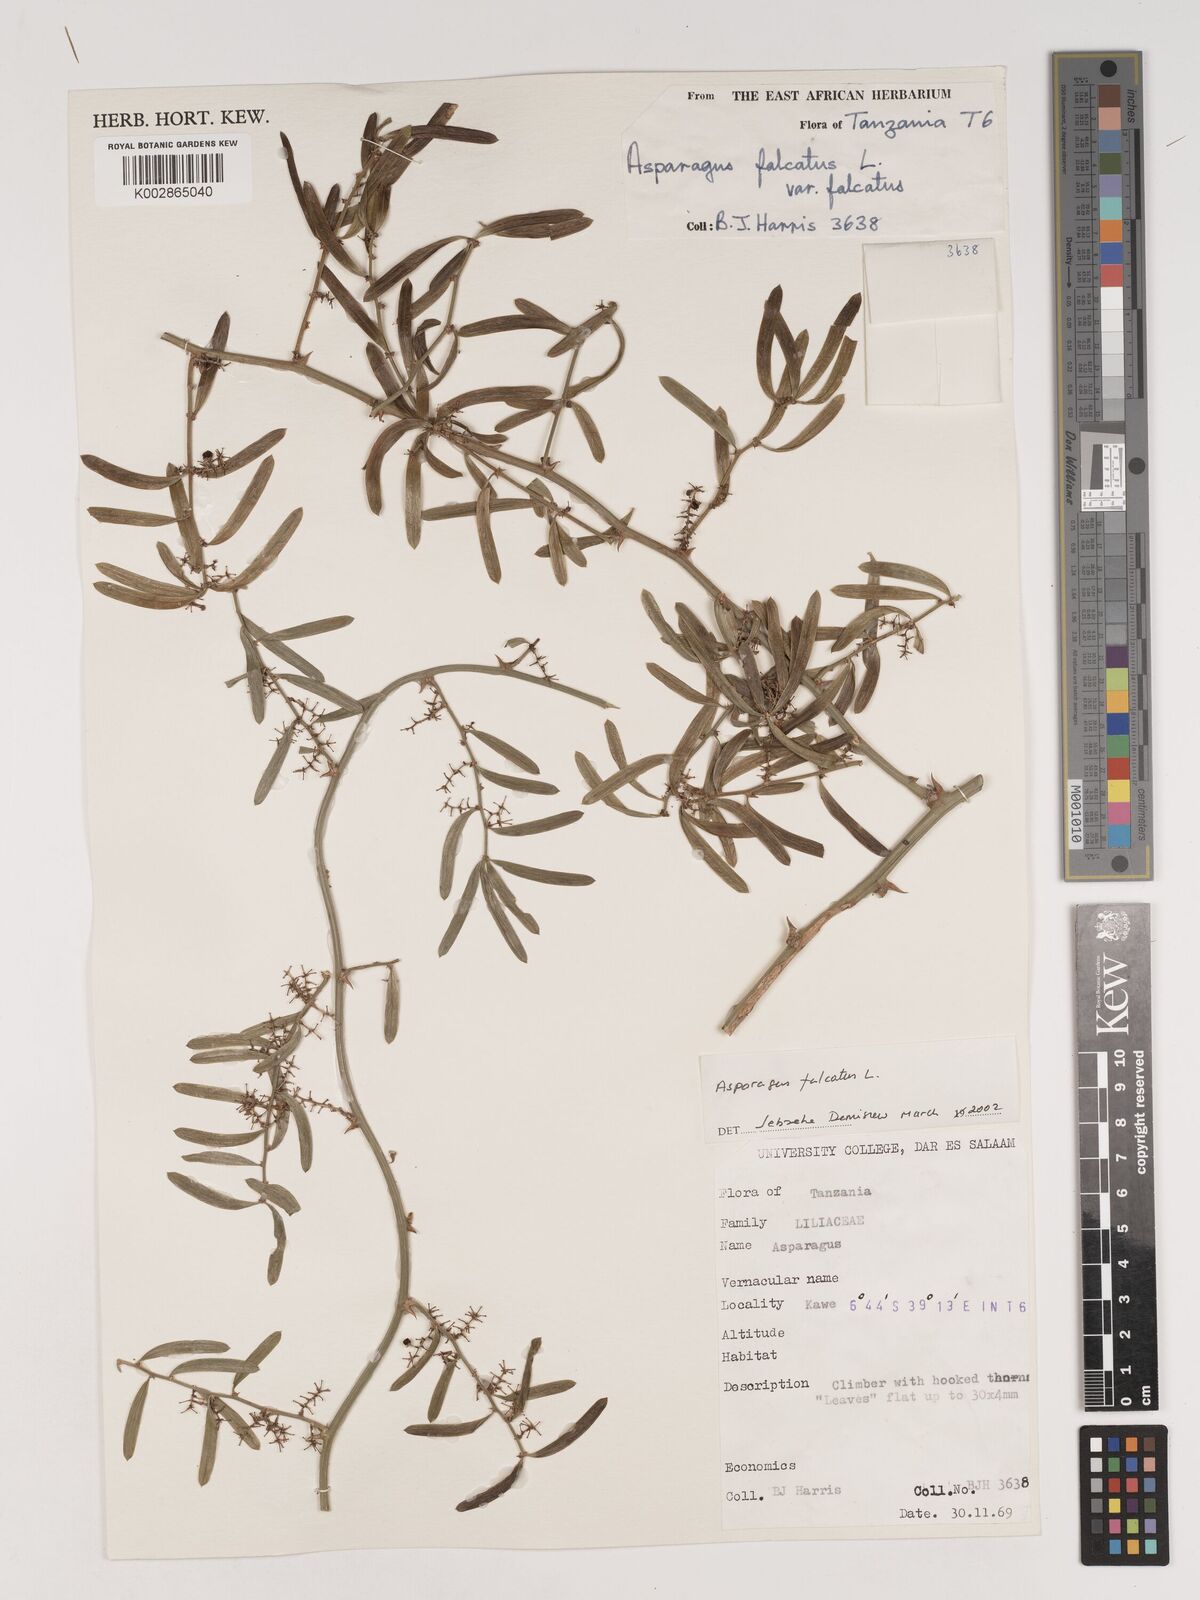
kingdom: Plantae
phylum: Tracheophyta
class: Liliopsida
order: Asparagales
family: Asparagaceae
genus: Asparagus
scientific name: Asparagus falcatus
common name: Asparagus
